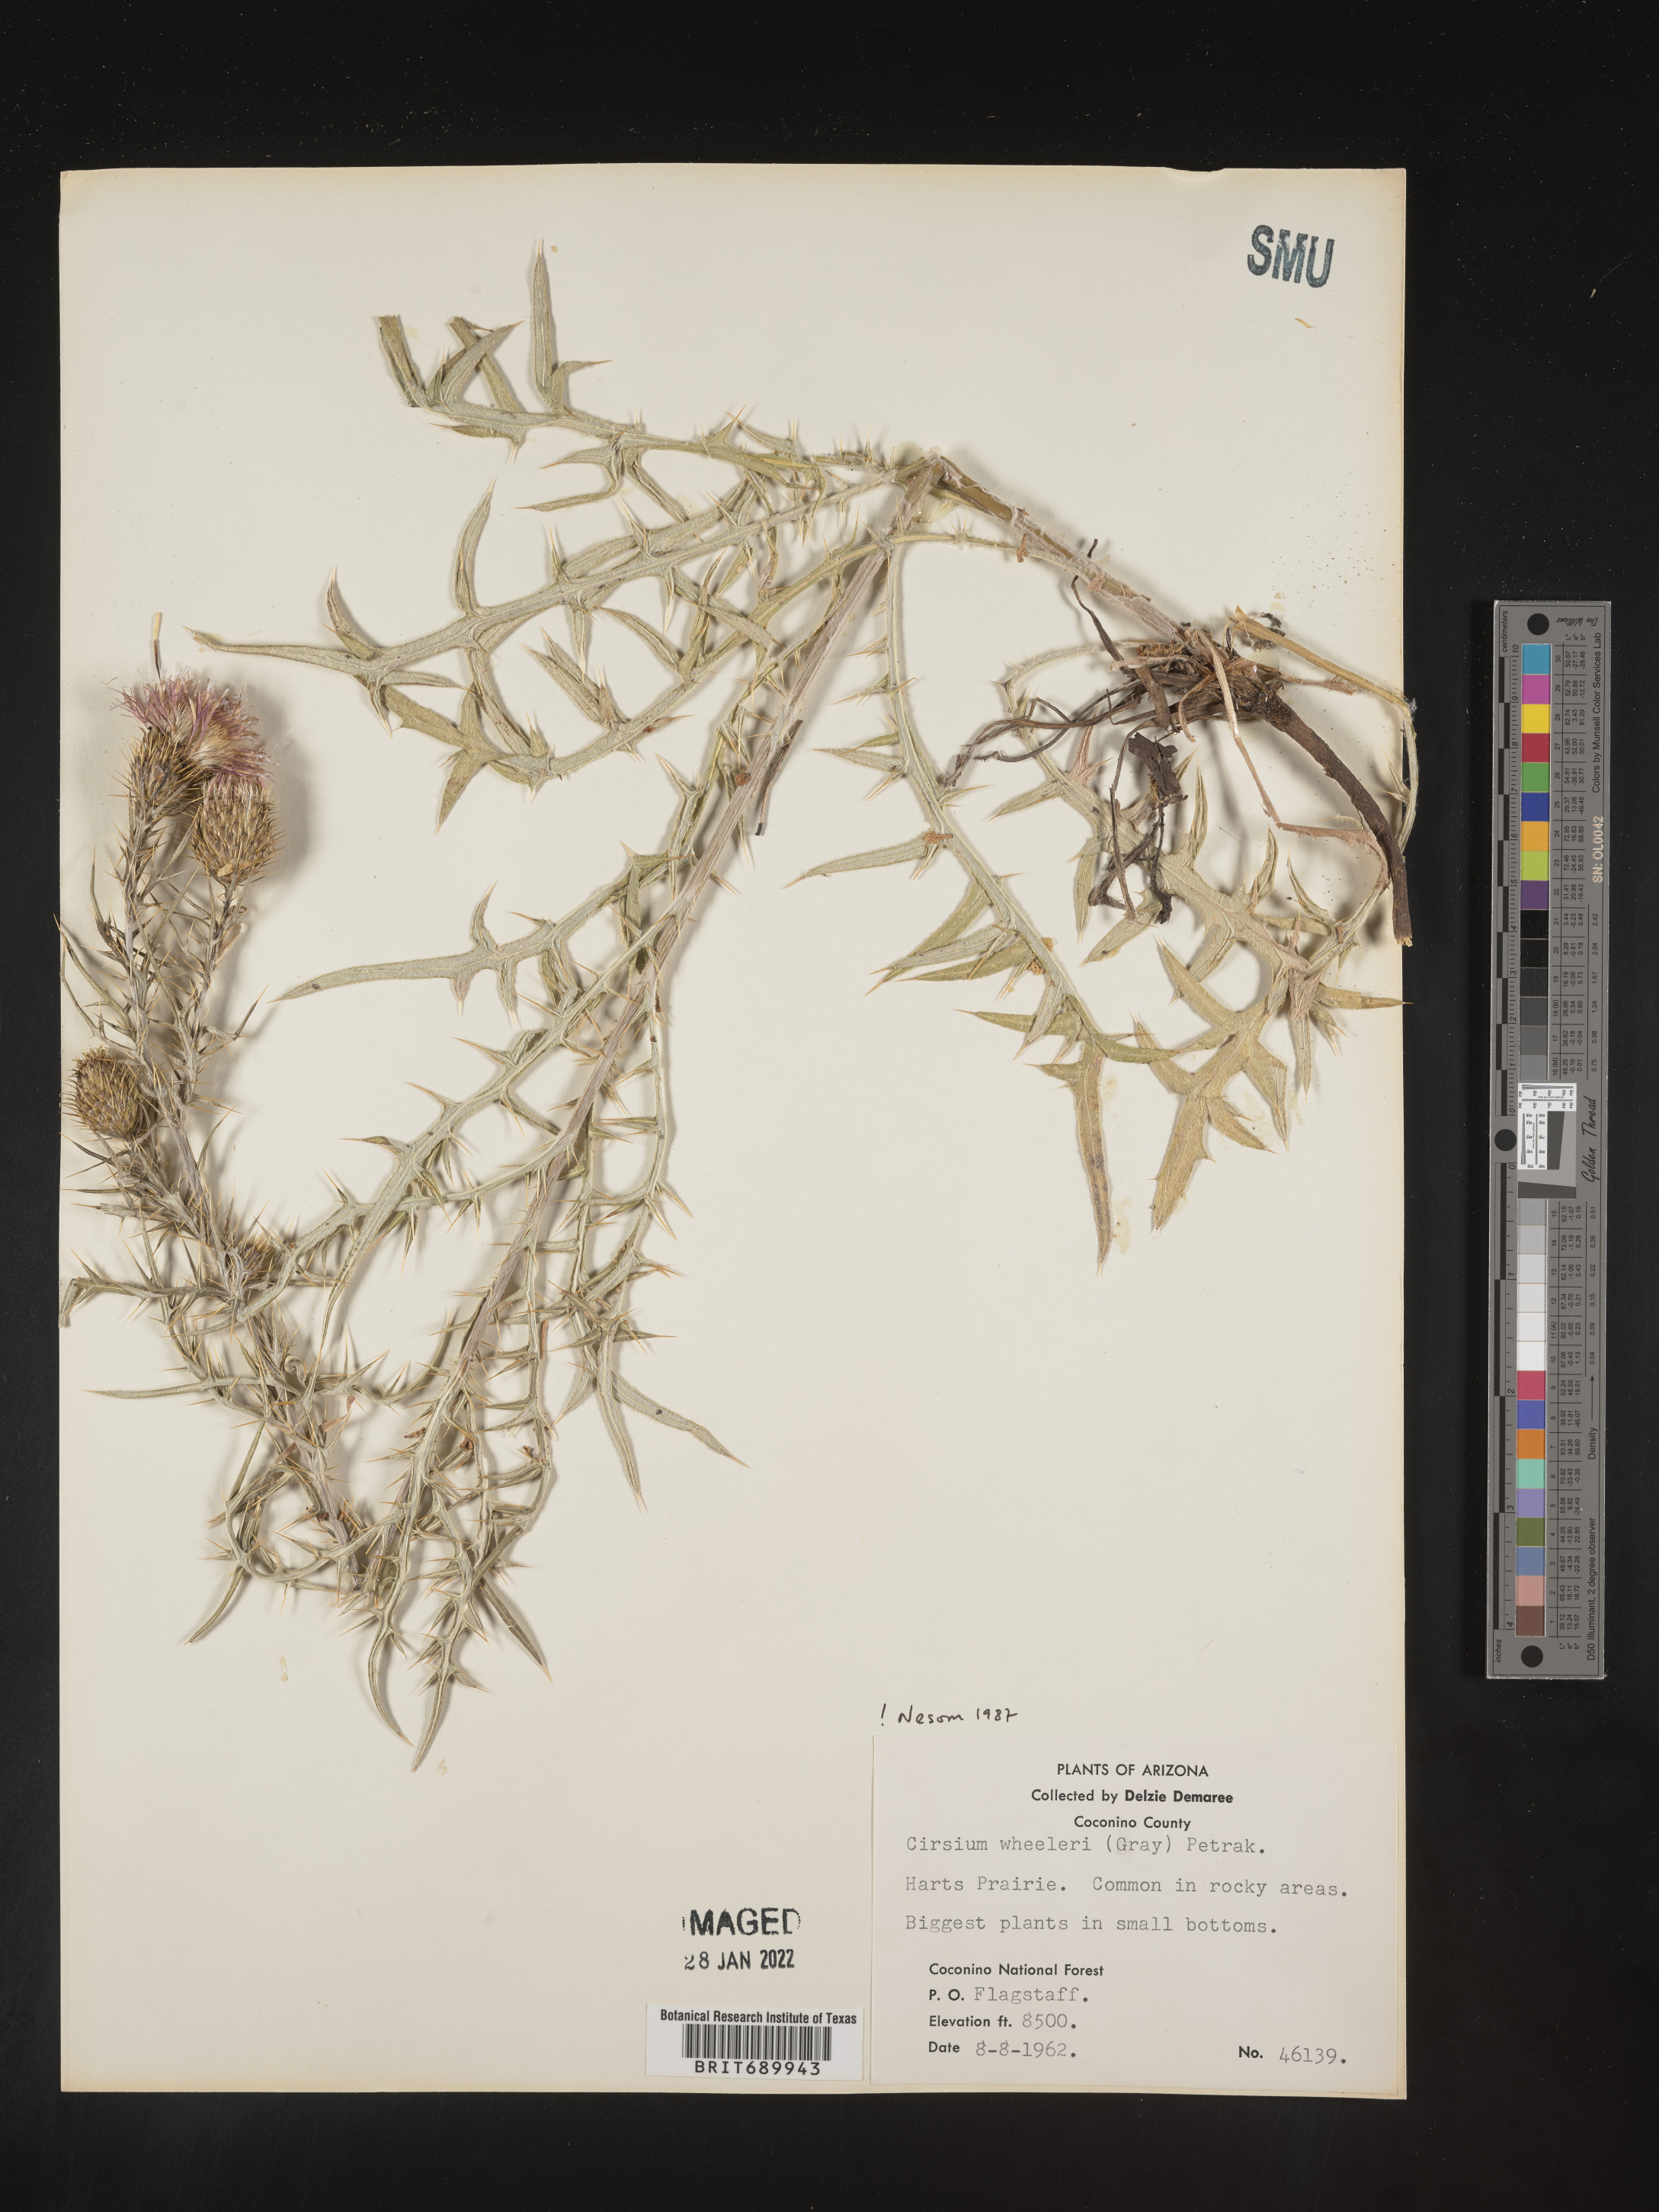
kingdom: Plantae
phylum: Tracheophyta
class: Magnoliopsida
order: Asterales
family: Asteraceae
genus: Cirsium
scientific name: Cirsium wheeleri
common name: Wheeler's thistle
